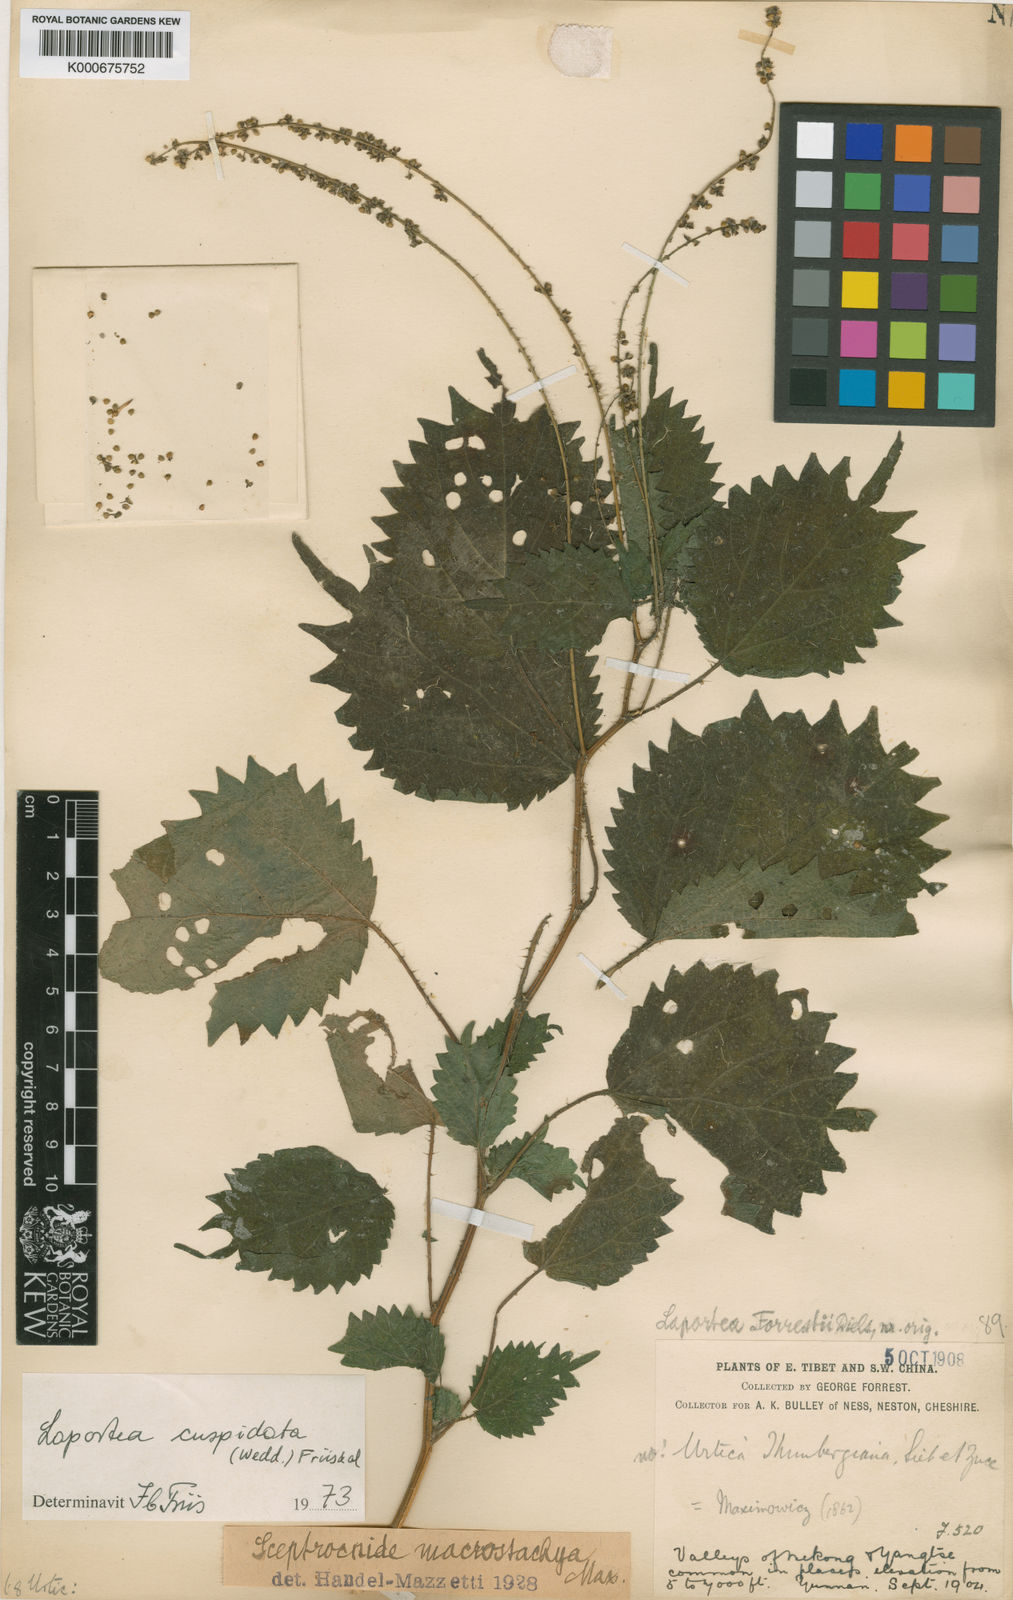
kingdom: Plantae
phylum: Tracheophyta
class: Magnoliopsida
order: Rosales
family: Urticaceae
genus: Laportea
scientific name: Laportea cuspidata
